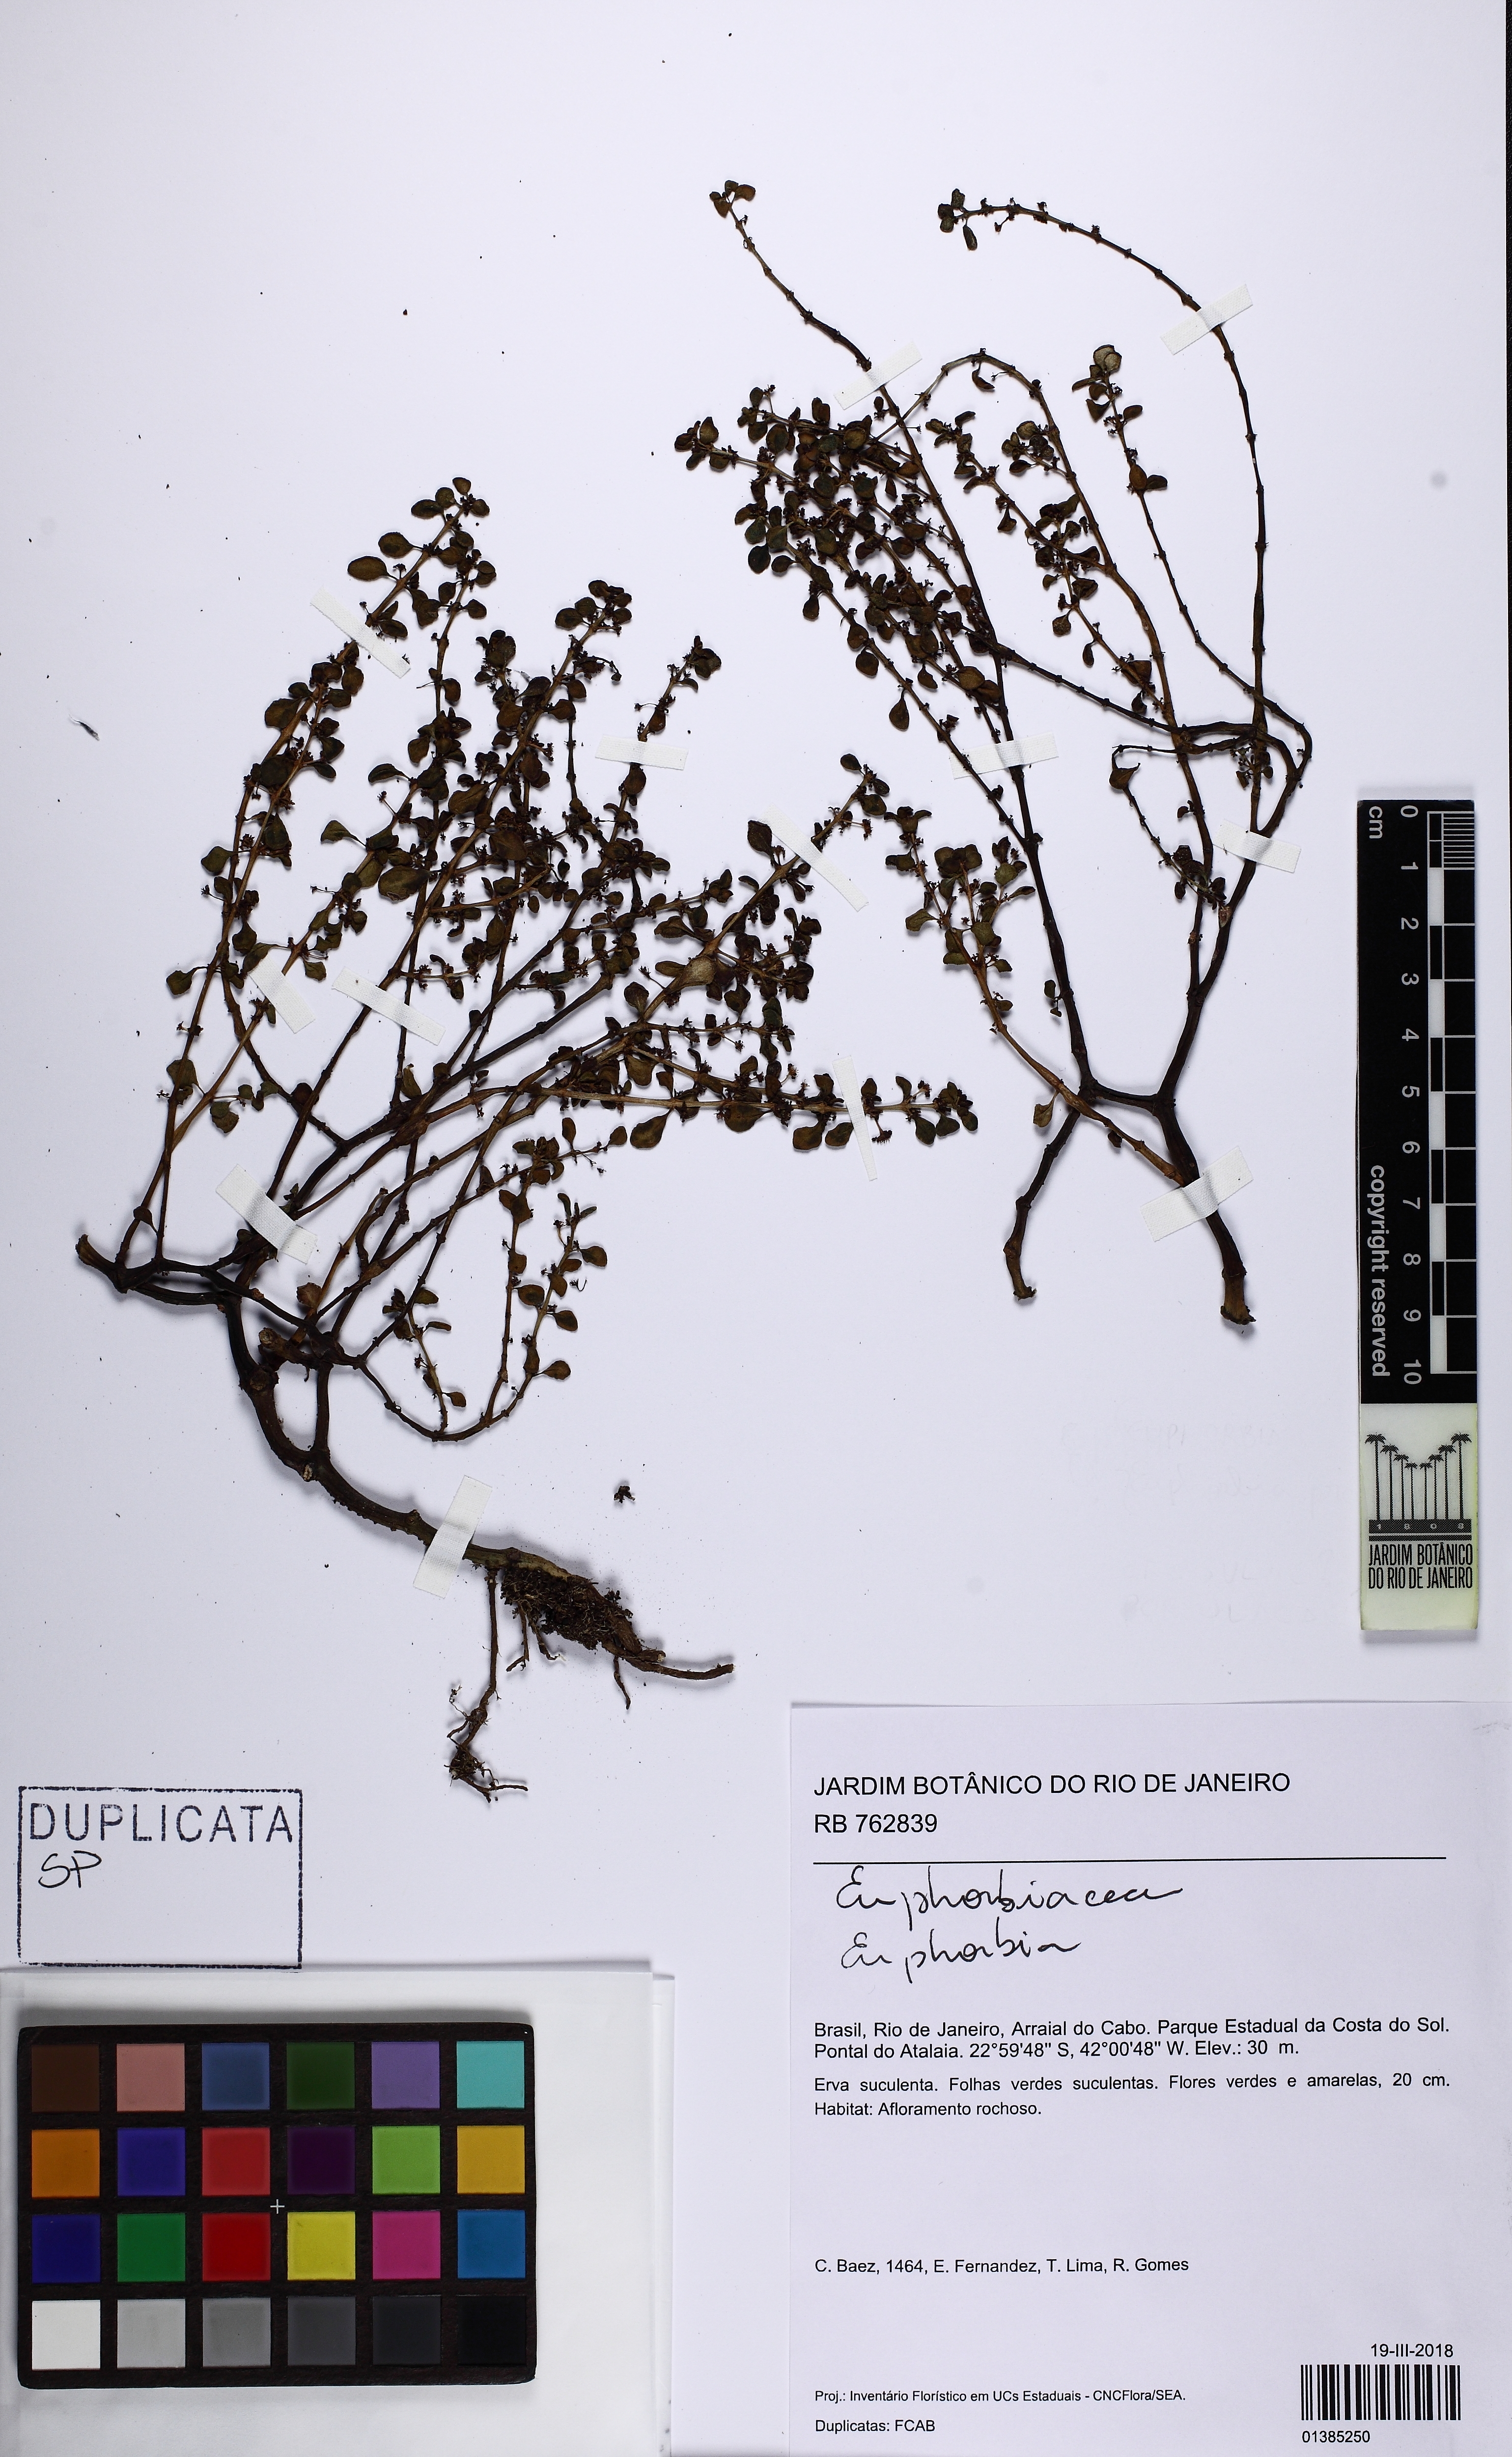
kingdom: Plantae
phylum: Tracheophyta
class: Magnoliopsida
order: Rosales
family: Urticaceae
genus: Pilea
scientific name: Pilea
